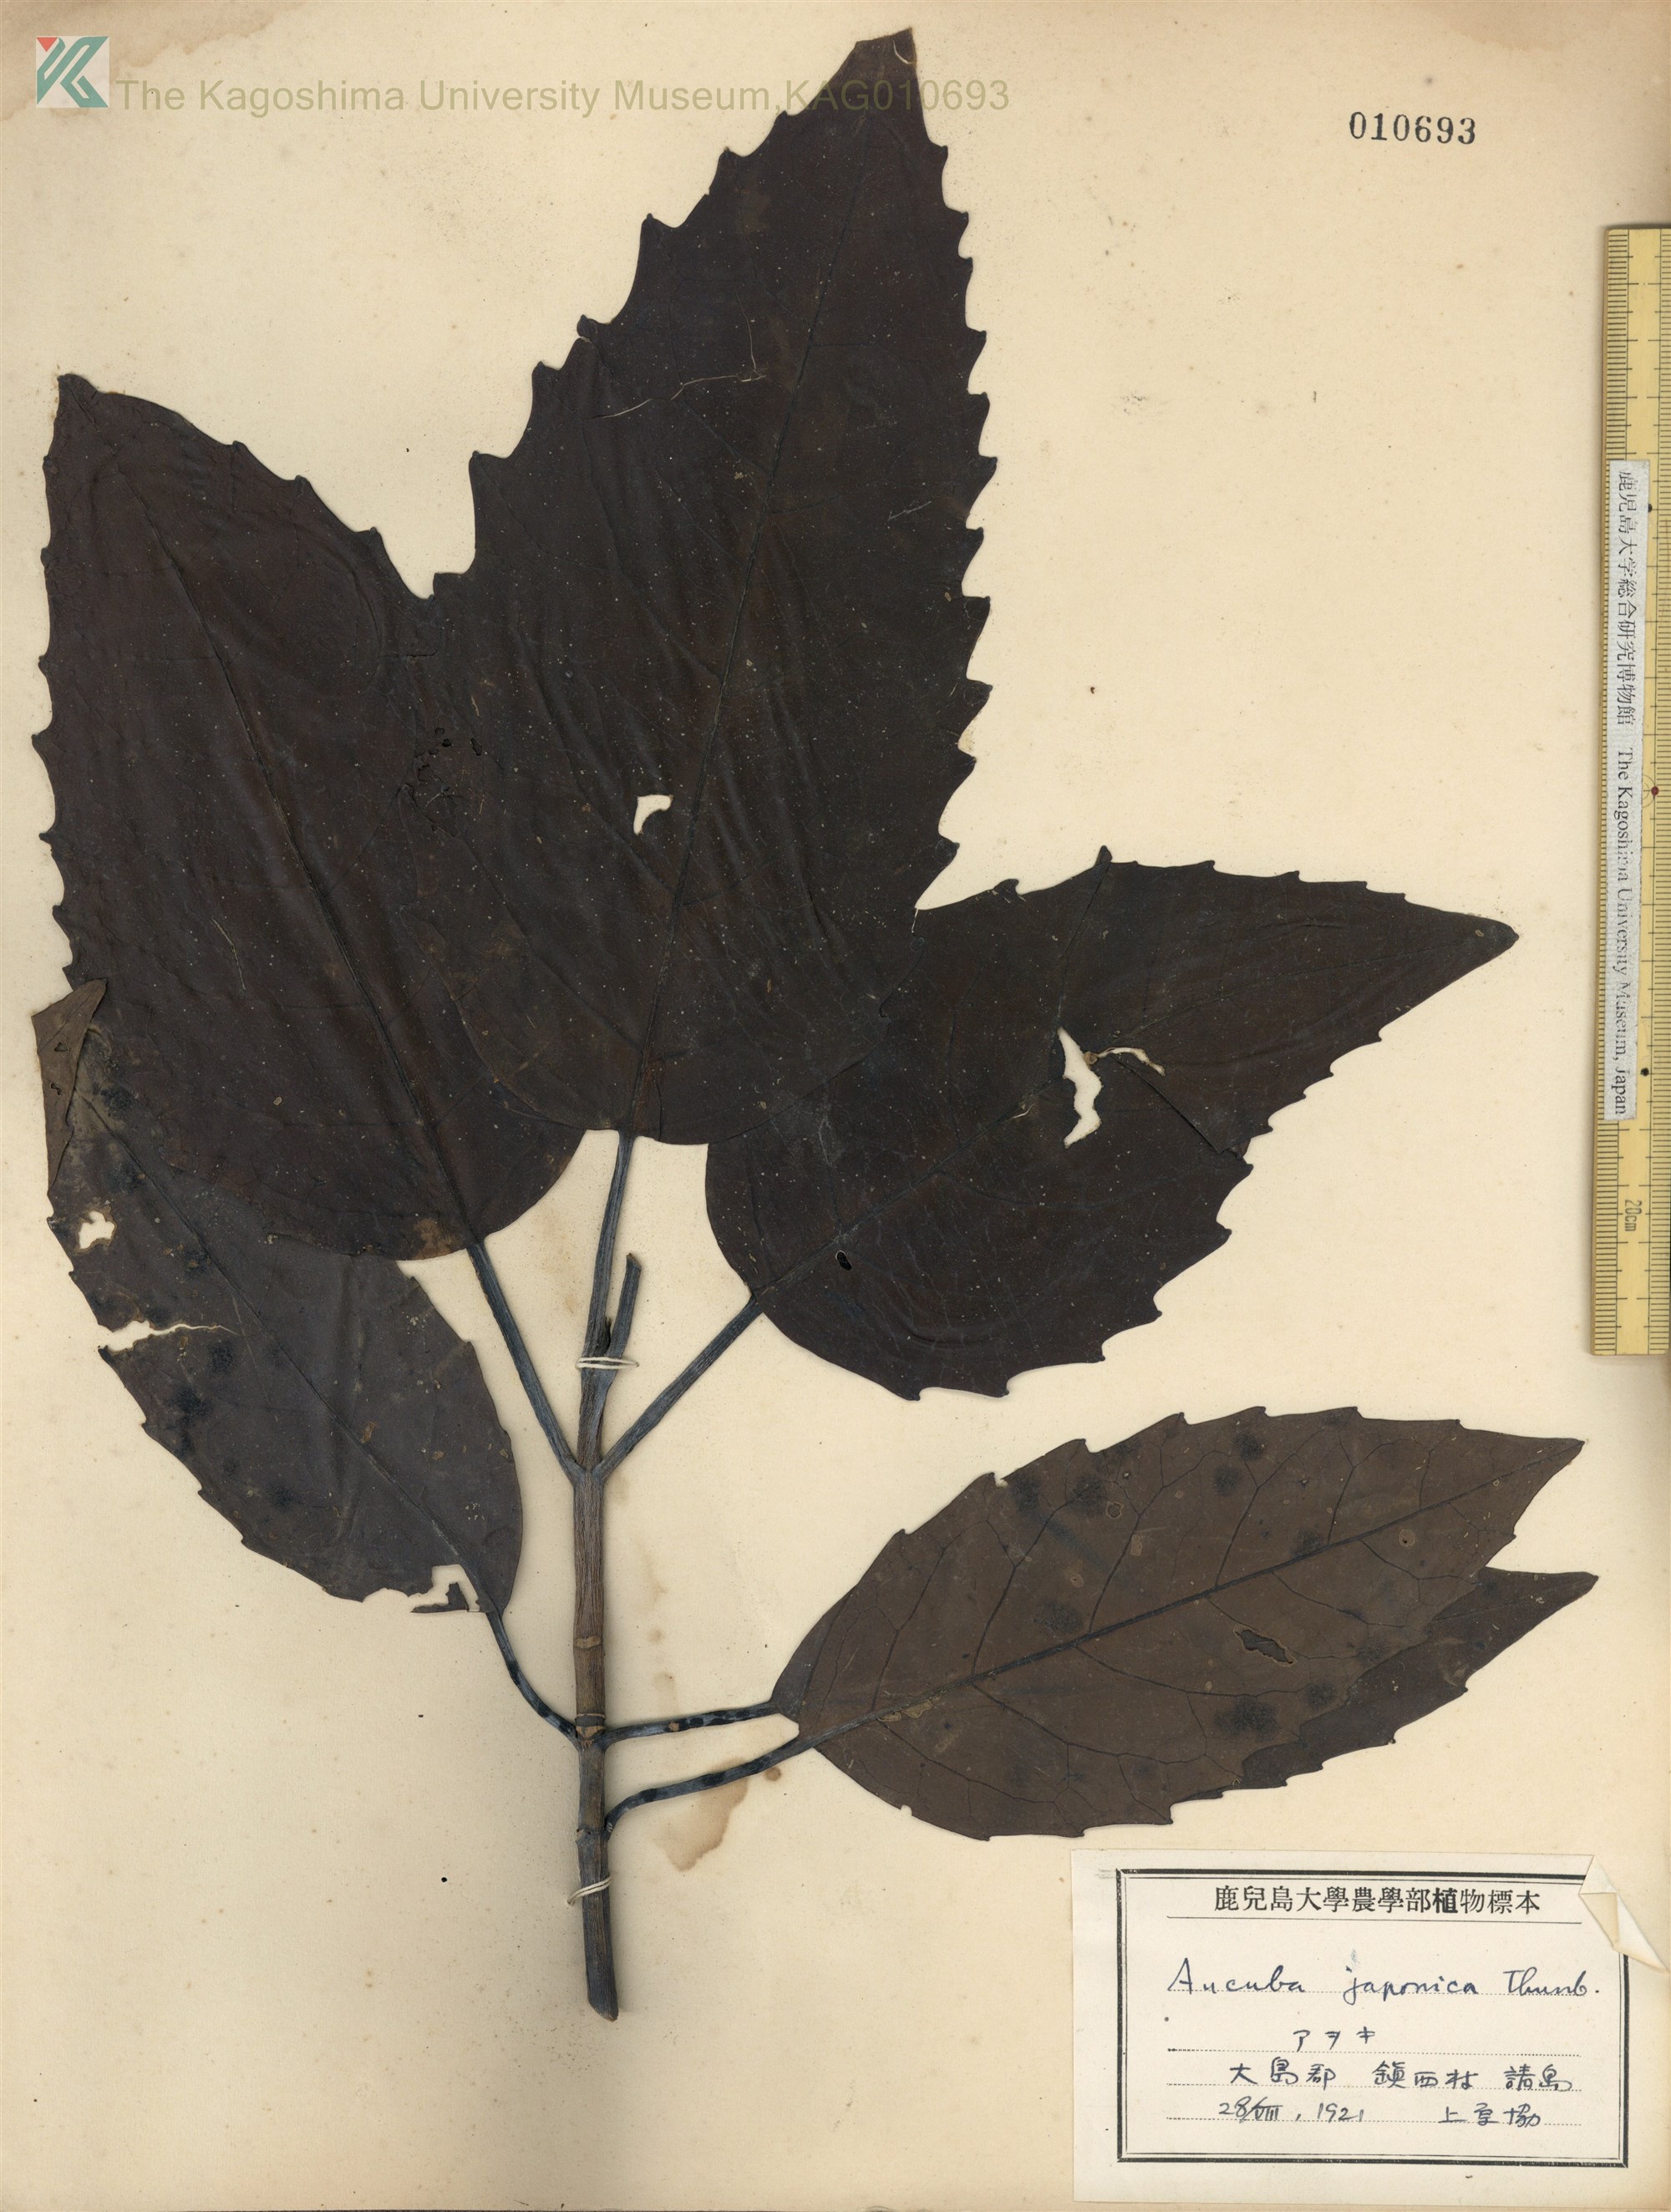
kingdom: Plantae
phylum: Tracheophyta
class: Magnoliopsida
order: Garryales
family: Garryaceae
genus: Aucuba
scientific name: Aucuba japonica
